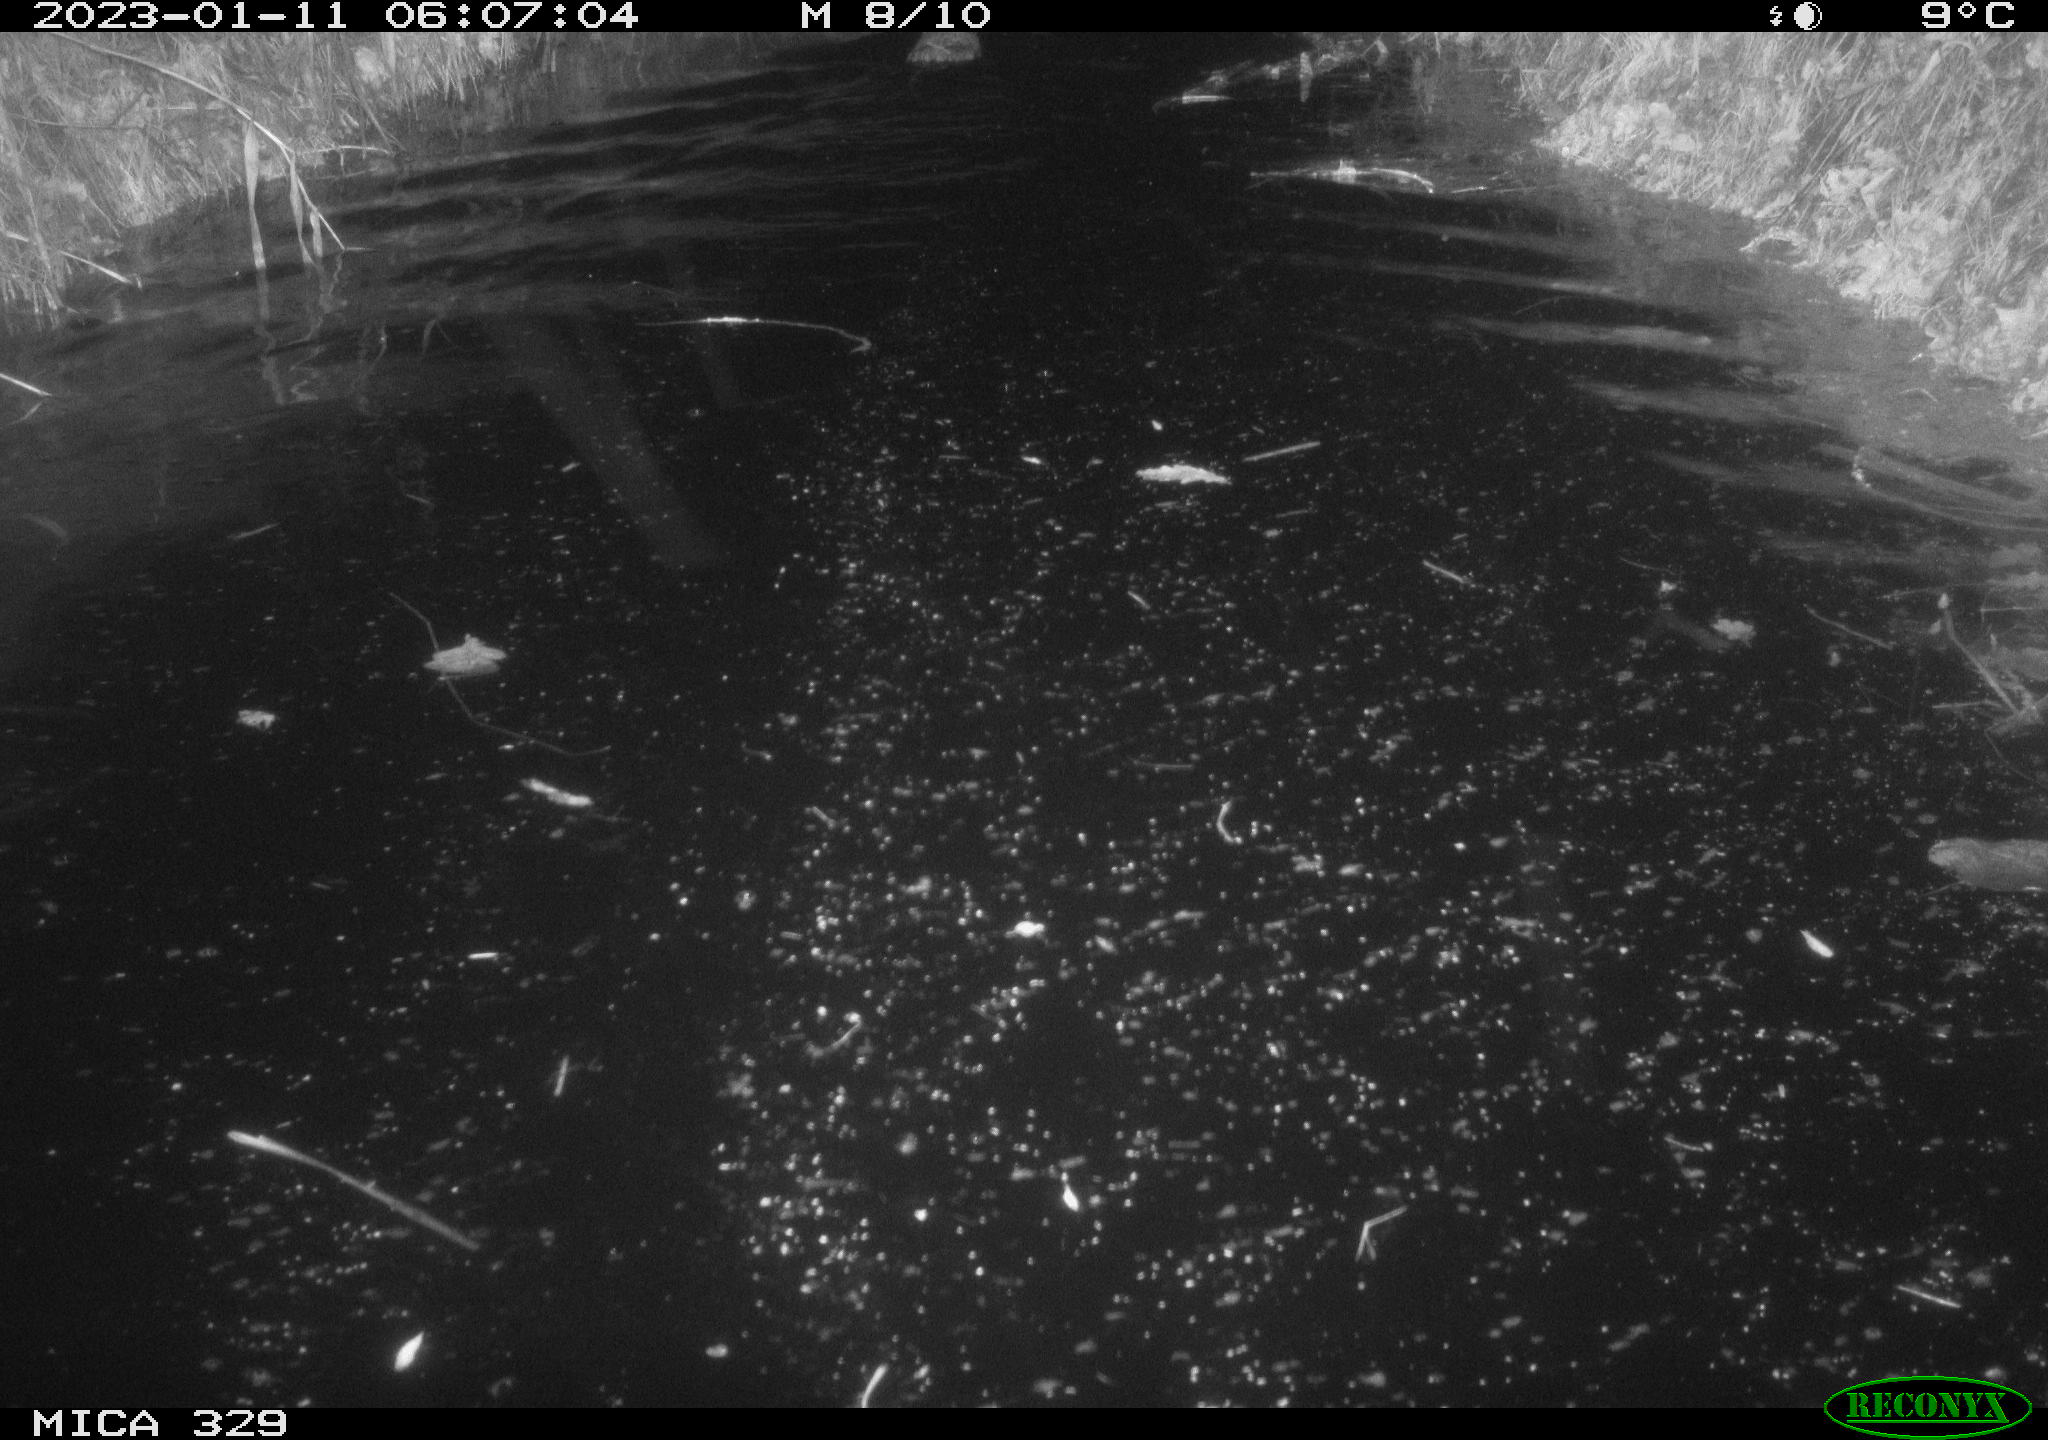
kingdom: Animalia
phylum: Chordata
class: Mammalia
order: Rodentia
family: Cricetidae
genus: Ondatra
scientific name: Ondatra zibethicus
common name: Muskrat
